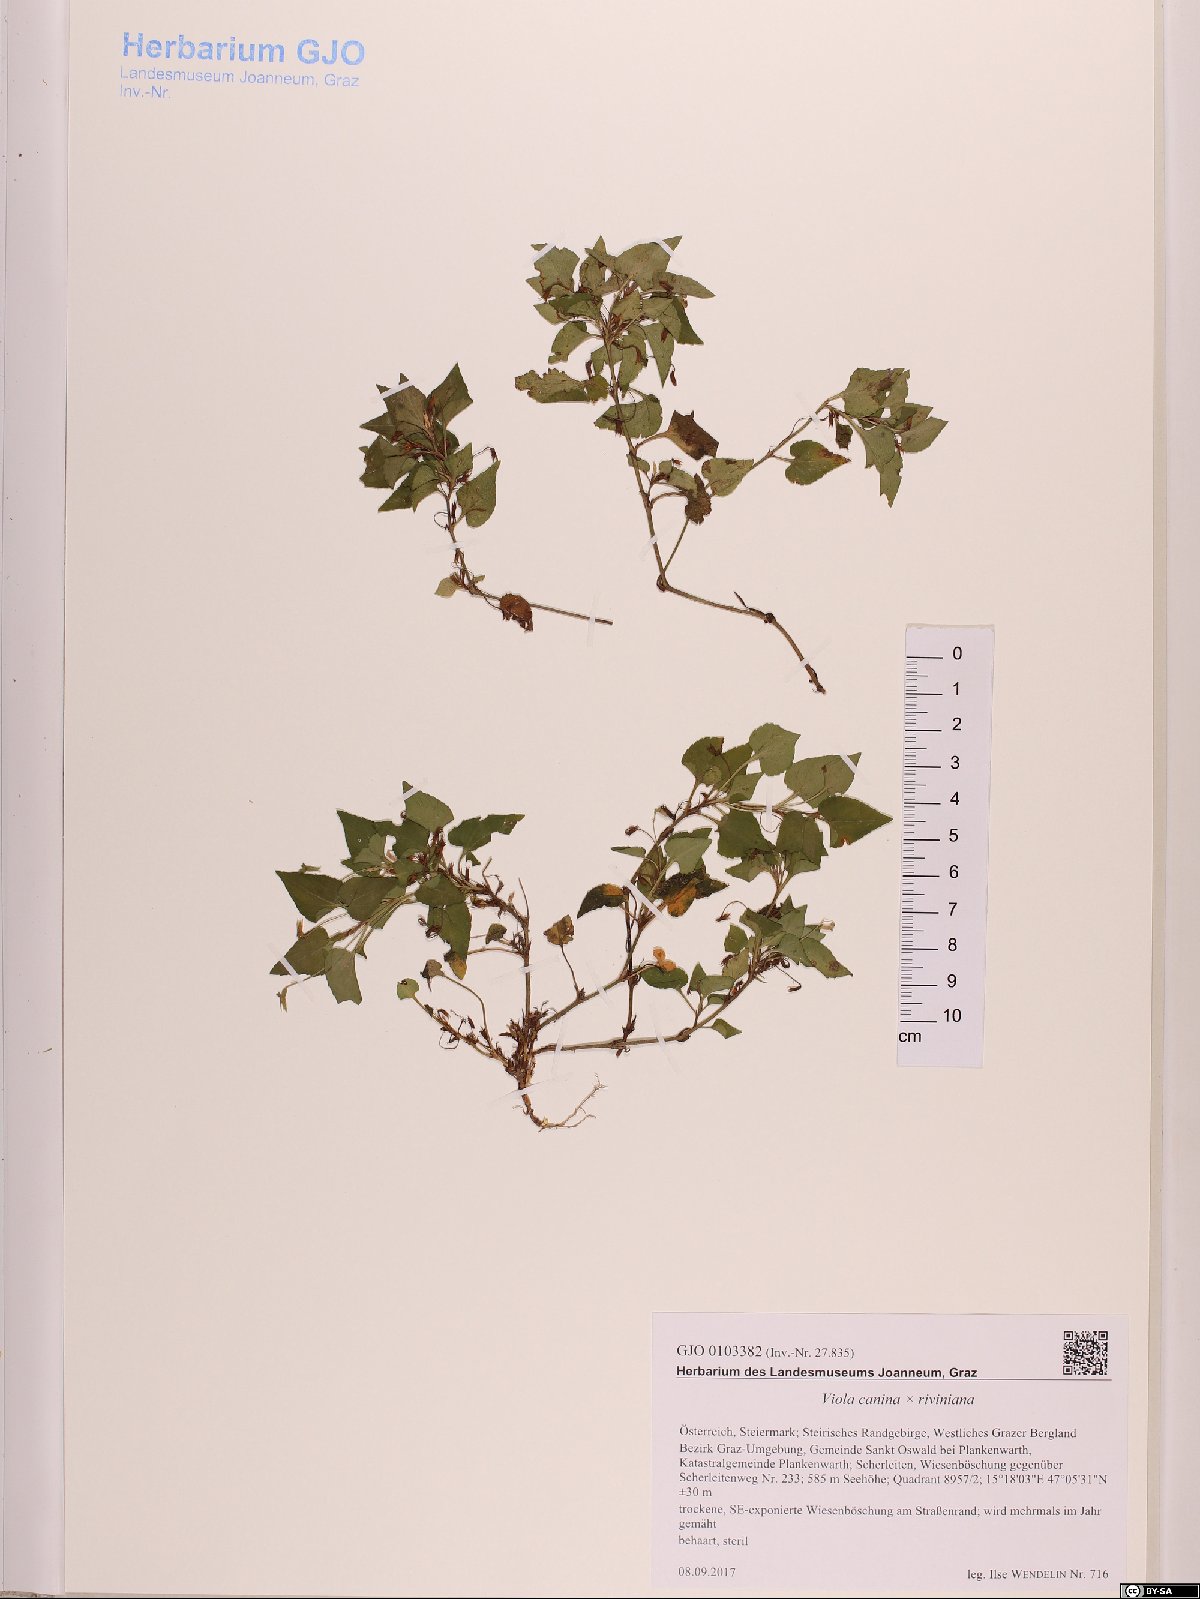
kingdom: Plantae
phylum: Tracheophyta
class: Magnoliopsida
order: Malpighiales
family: Violaceae
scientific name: Violaceae
